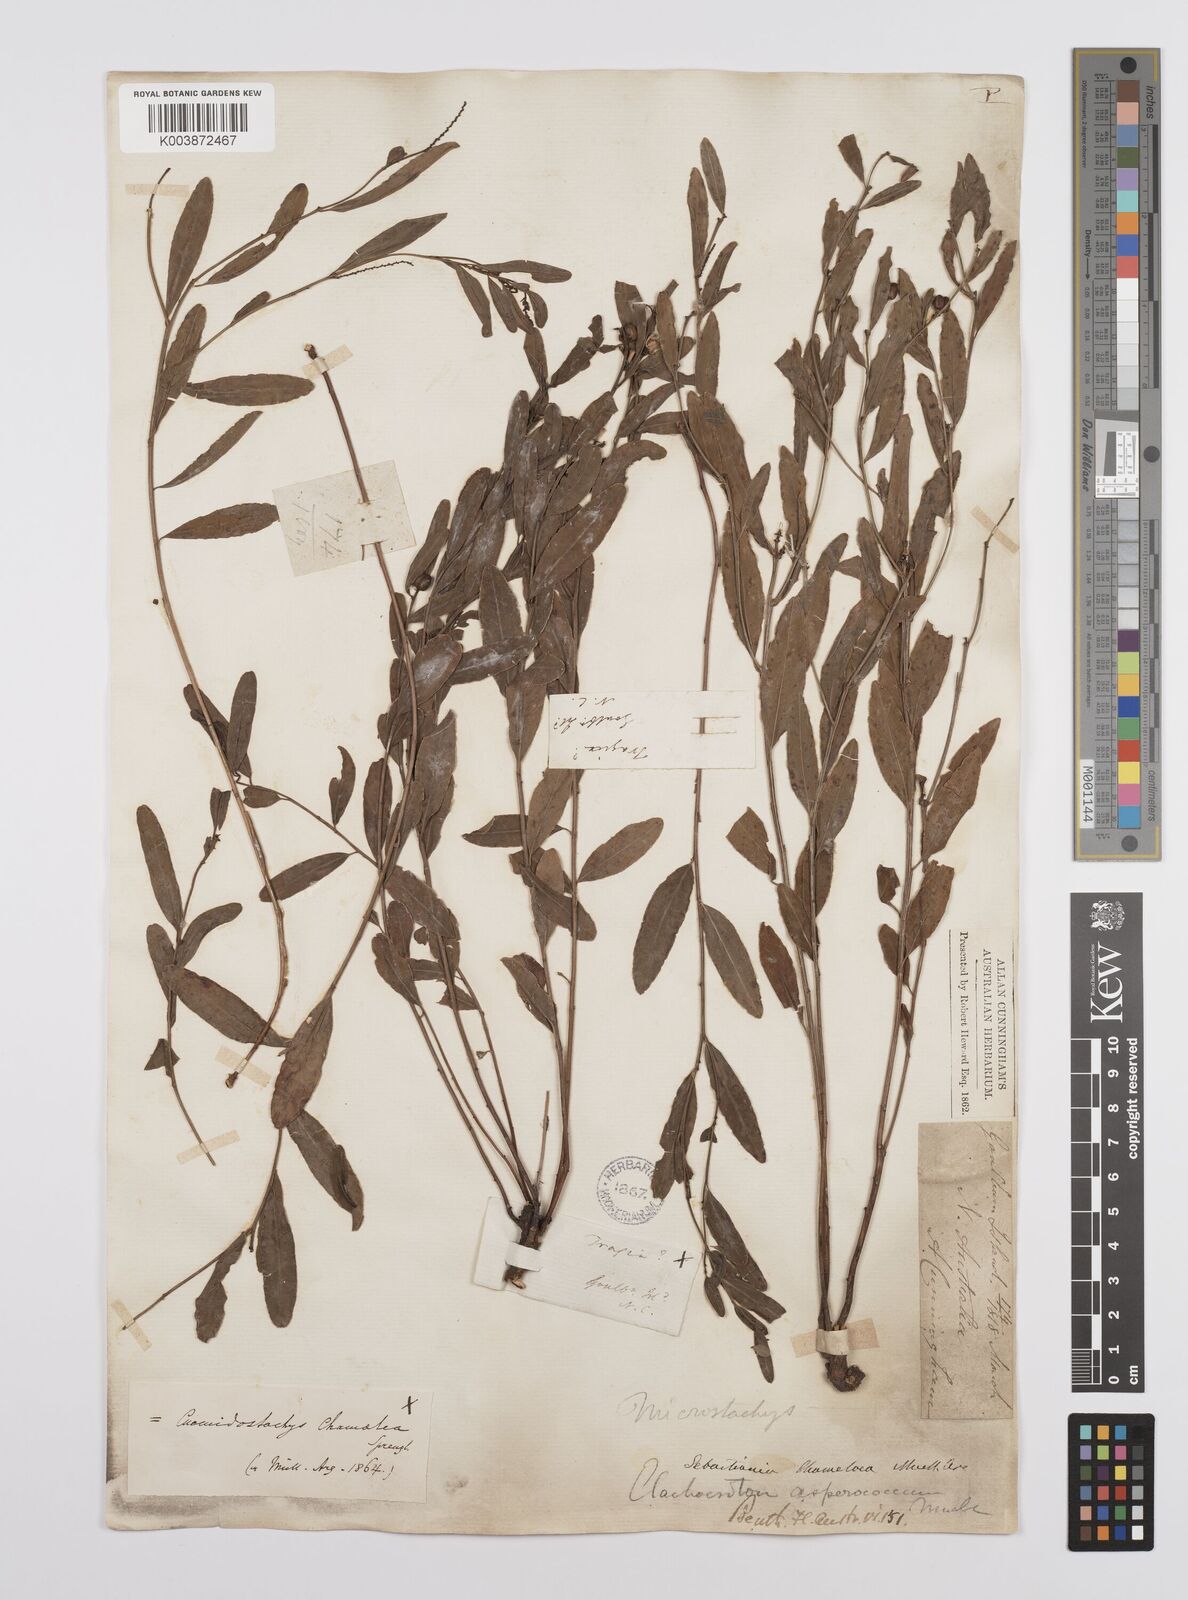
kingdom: Plantae
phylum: Tracheophyta
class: Magnoliopsida
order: Malpighiales
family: Euphorbiaceae
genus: Microstachys
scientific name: Microstachys chamaelea
